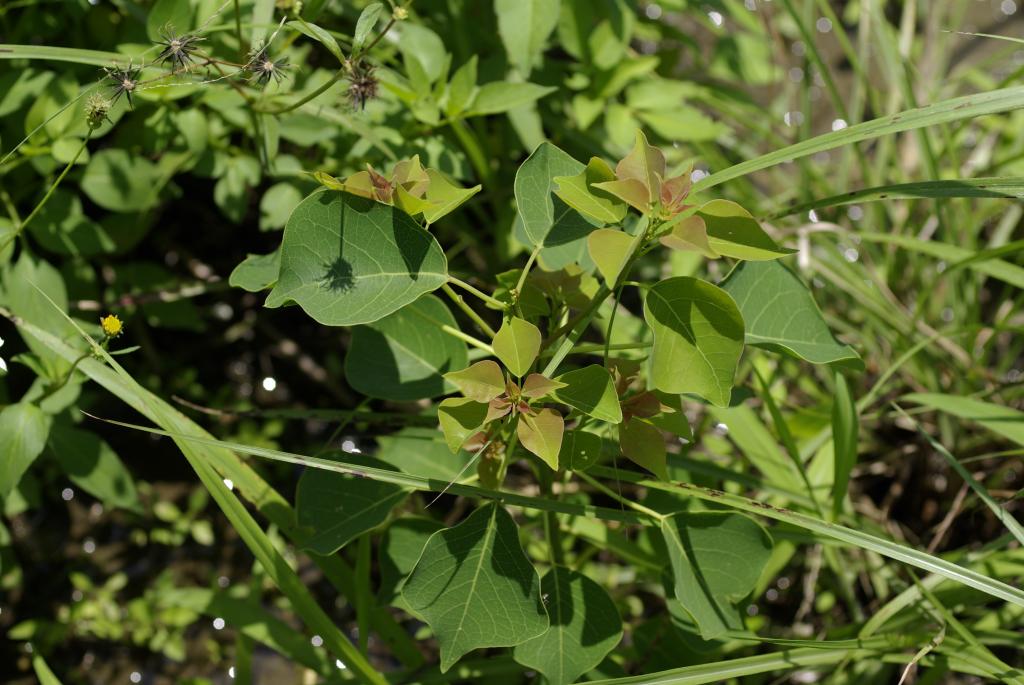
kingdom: Plantae
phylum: Tracheophyta
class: Magnoliopsida
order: Malpighiales
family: Euphorbiaceae
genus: Triadica
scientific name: Triadica sebifera
